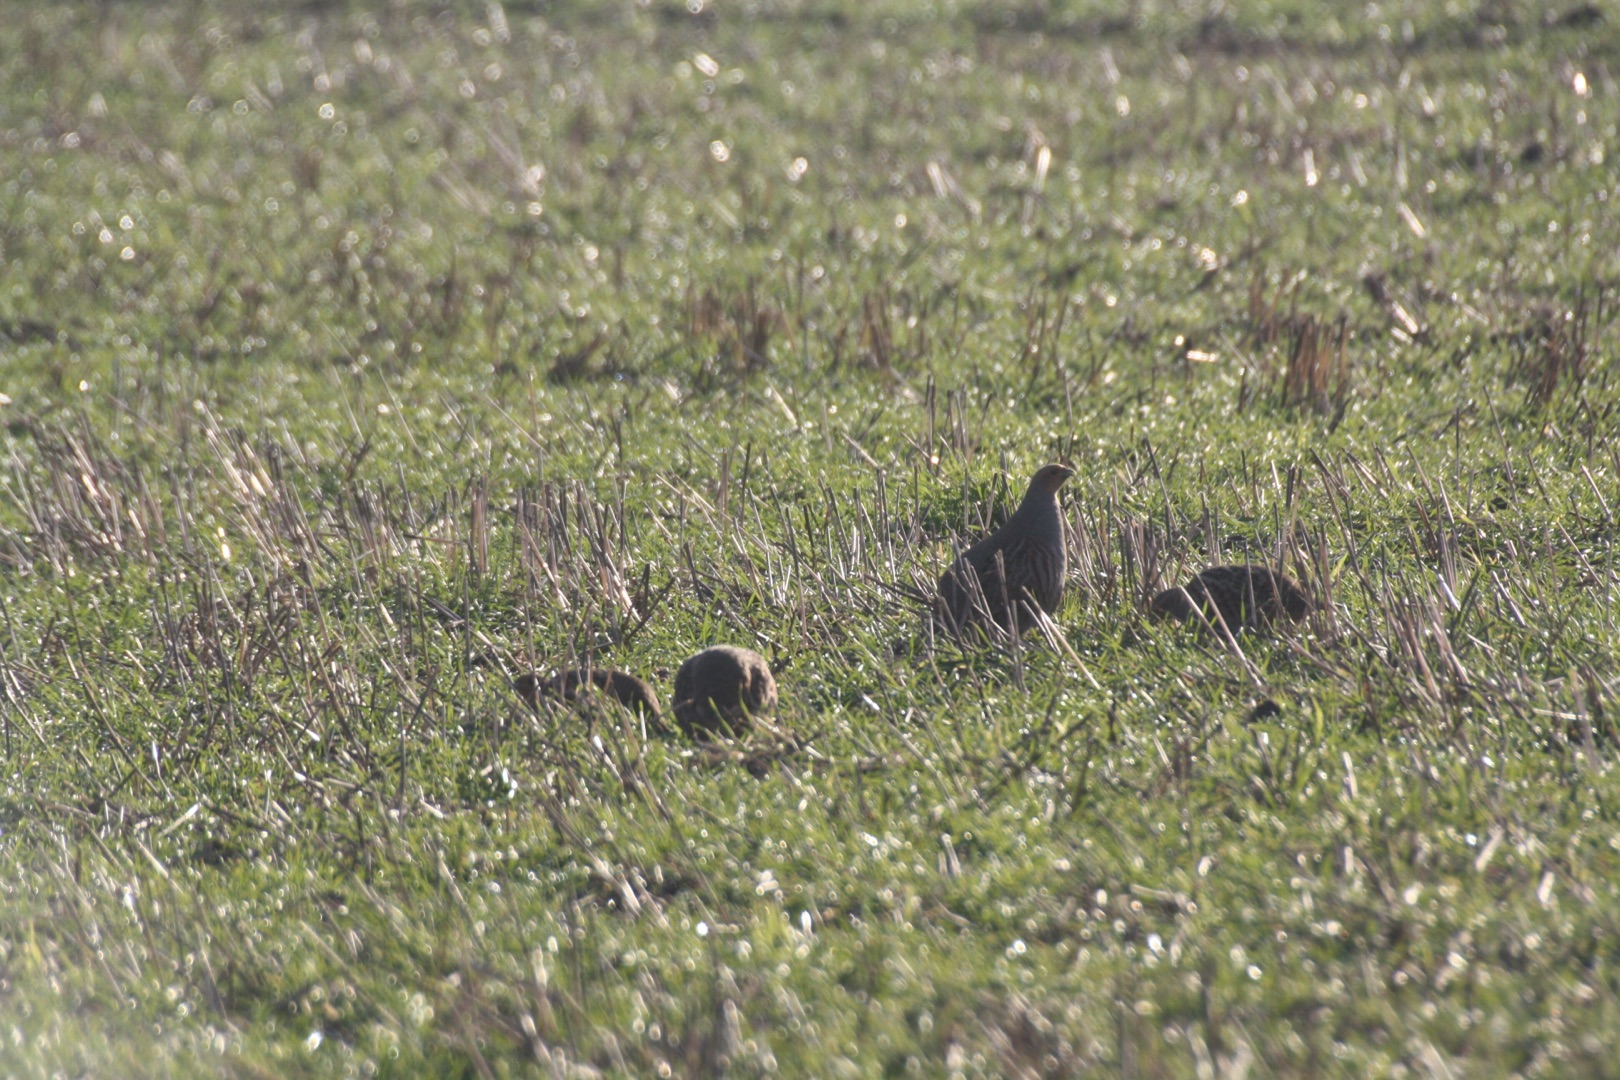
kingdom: Animalia
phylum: Chordata
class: Aves
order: Galliformes
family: Phasianidae
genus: Perdix
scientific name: Perdix perdix
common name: Agerhøne
